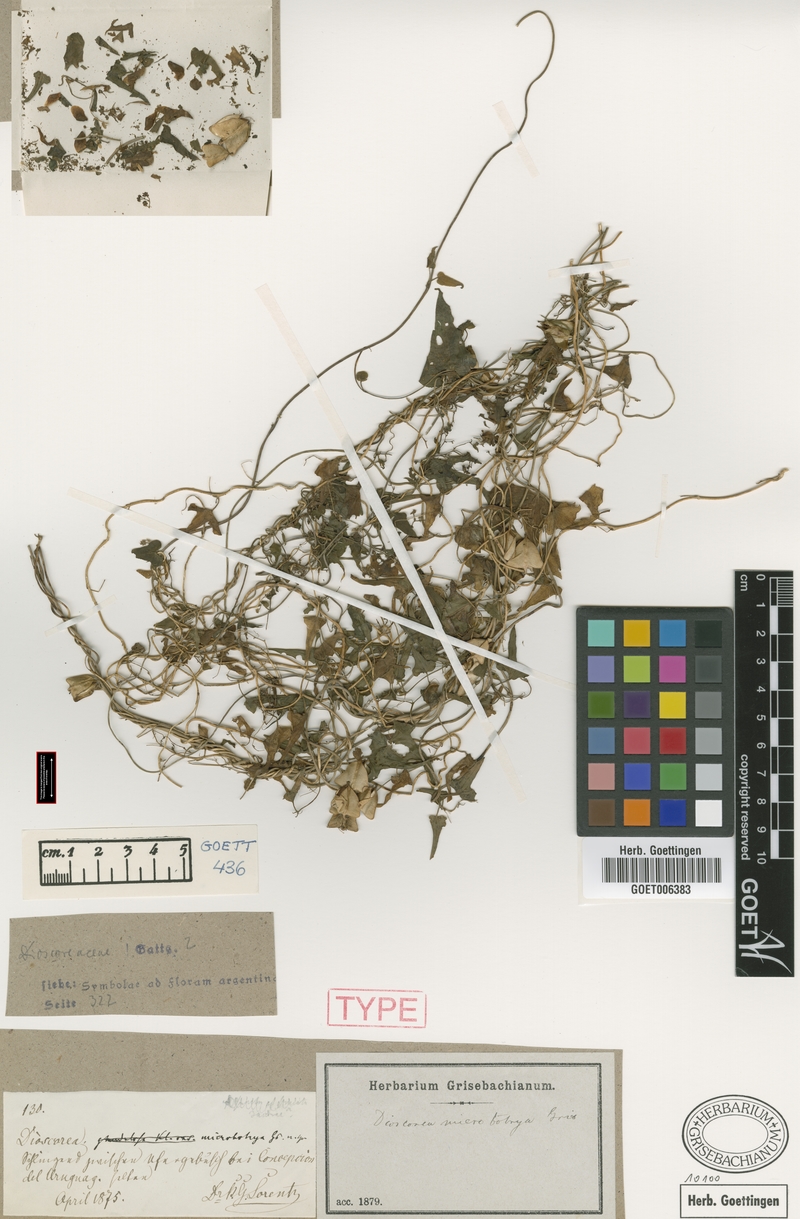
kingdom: Plantae
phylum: Tracheophyta
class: Liliopsida
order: Dioscoreales
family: Dioscoreaceae
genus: Dioscorea
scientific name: Dioscorea microbotrya
